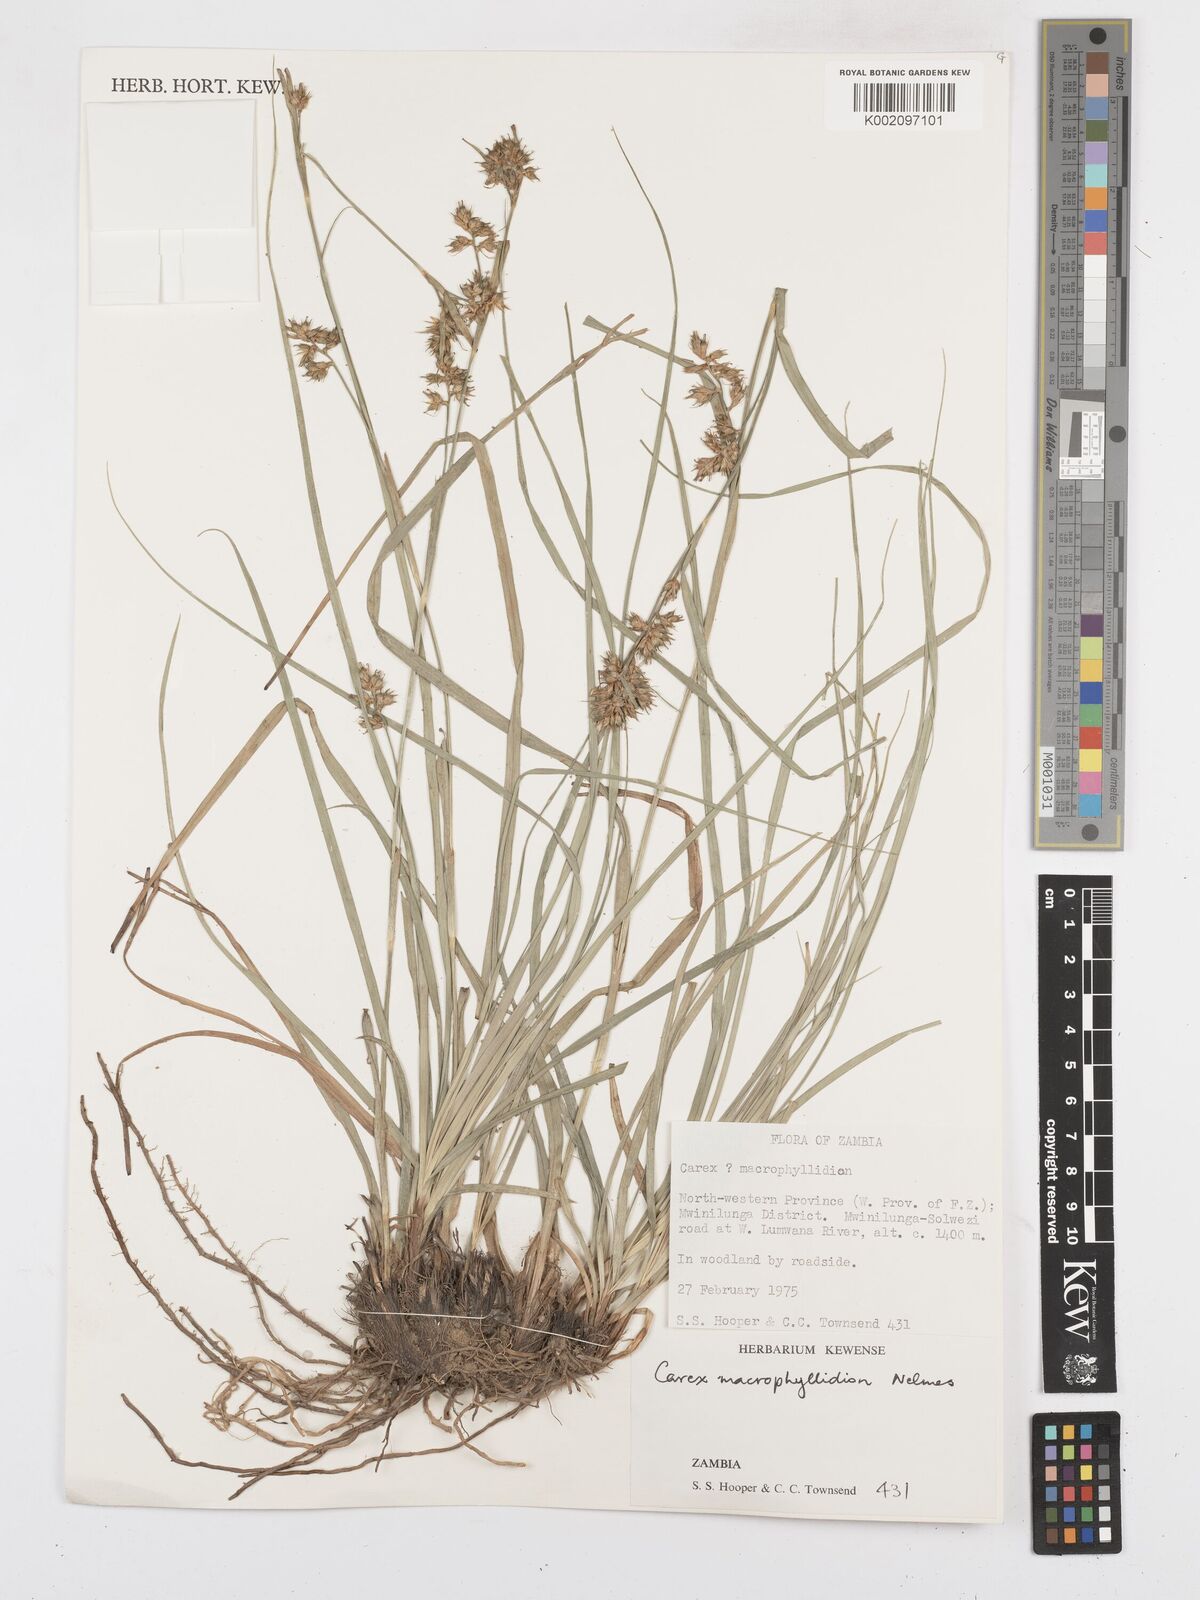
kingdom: Plantae
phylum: Tracheophyta
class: Liliopsida
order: Poales
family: Cyperaceae
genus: Carex
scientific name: Carex macrophyllidion
